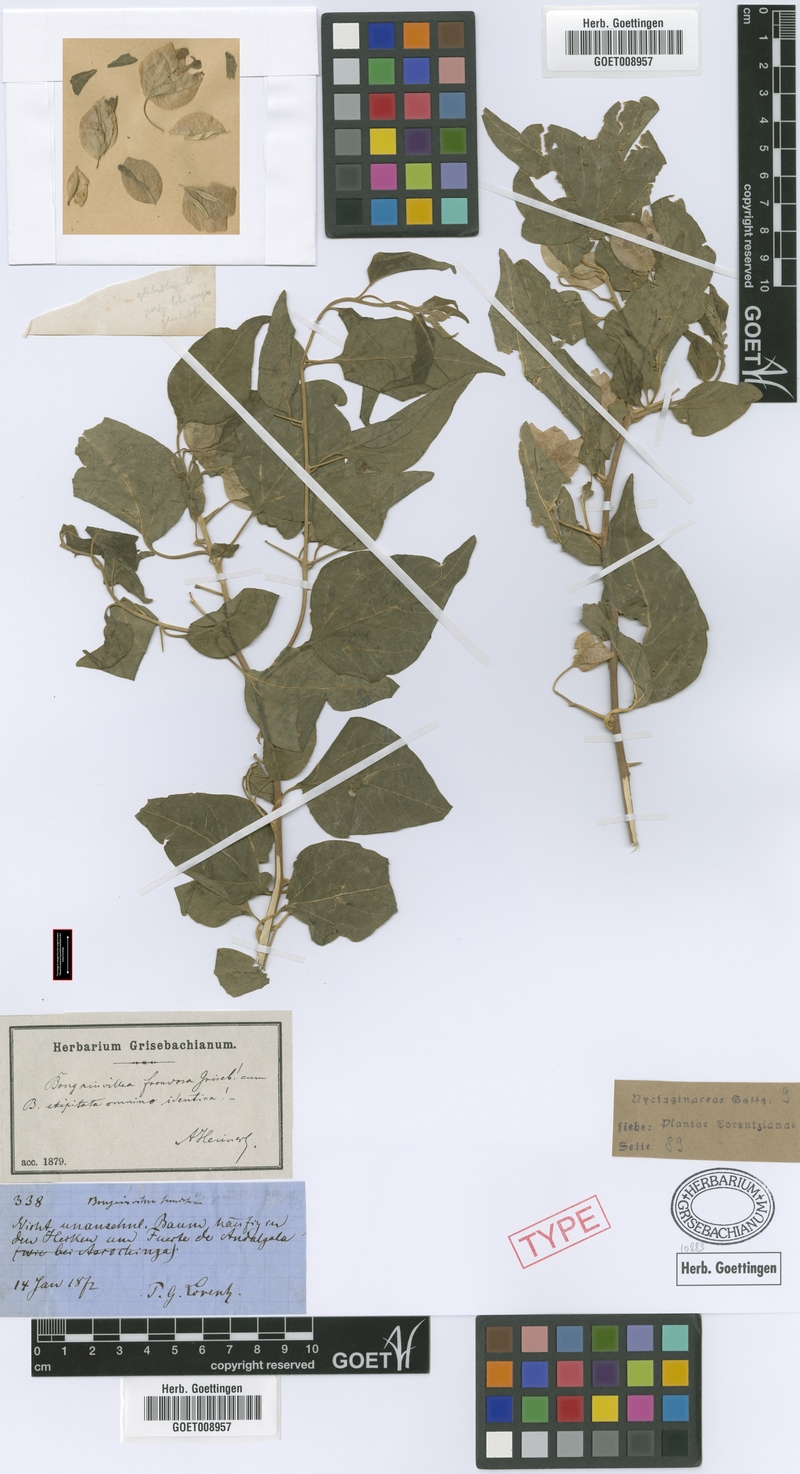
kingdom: Plantae
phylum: Tracheophyta
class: Magnoliopsida
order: Caryophyllales
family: Nyctaginaceae
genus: Bougainvillea
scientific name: Bougainvillea stipitata
